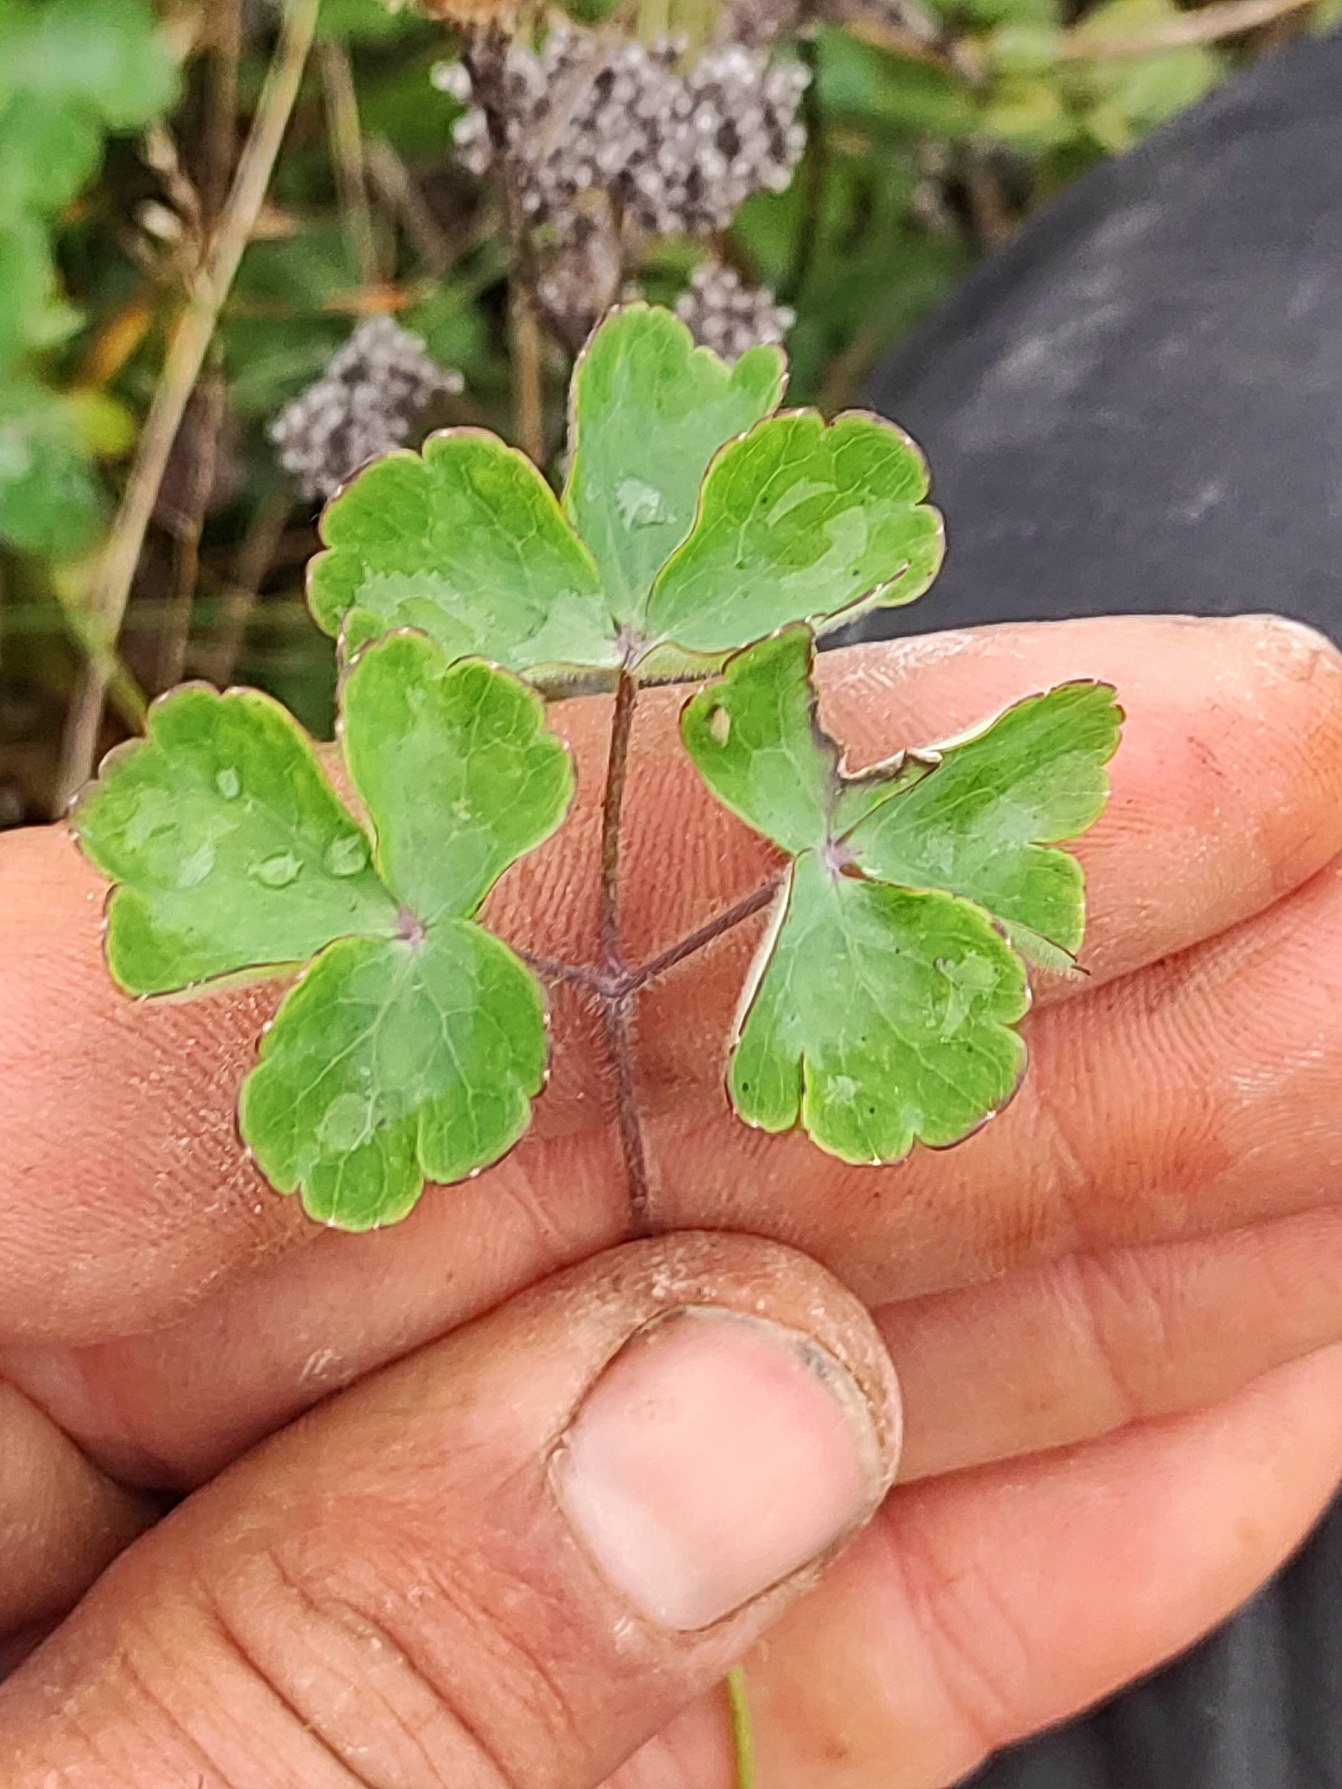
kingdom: Plantae
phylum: Tracheophyta
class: Magnoliopsida
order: Ranunculales
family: Ranunculaceae
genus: Aquilegia
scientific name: Aquilegia vulgaris
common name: Akeleje
